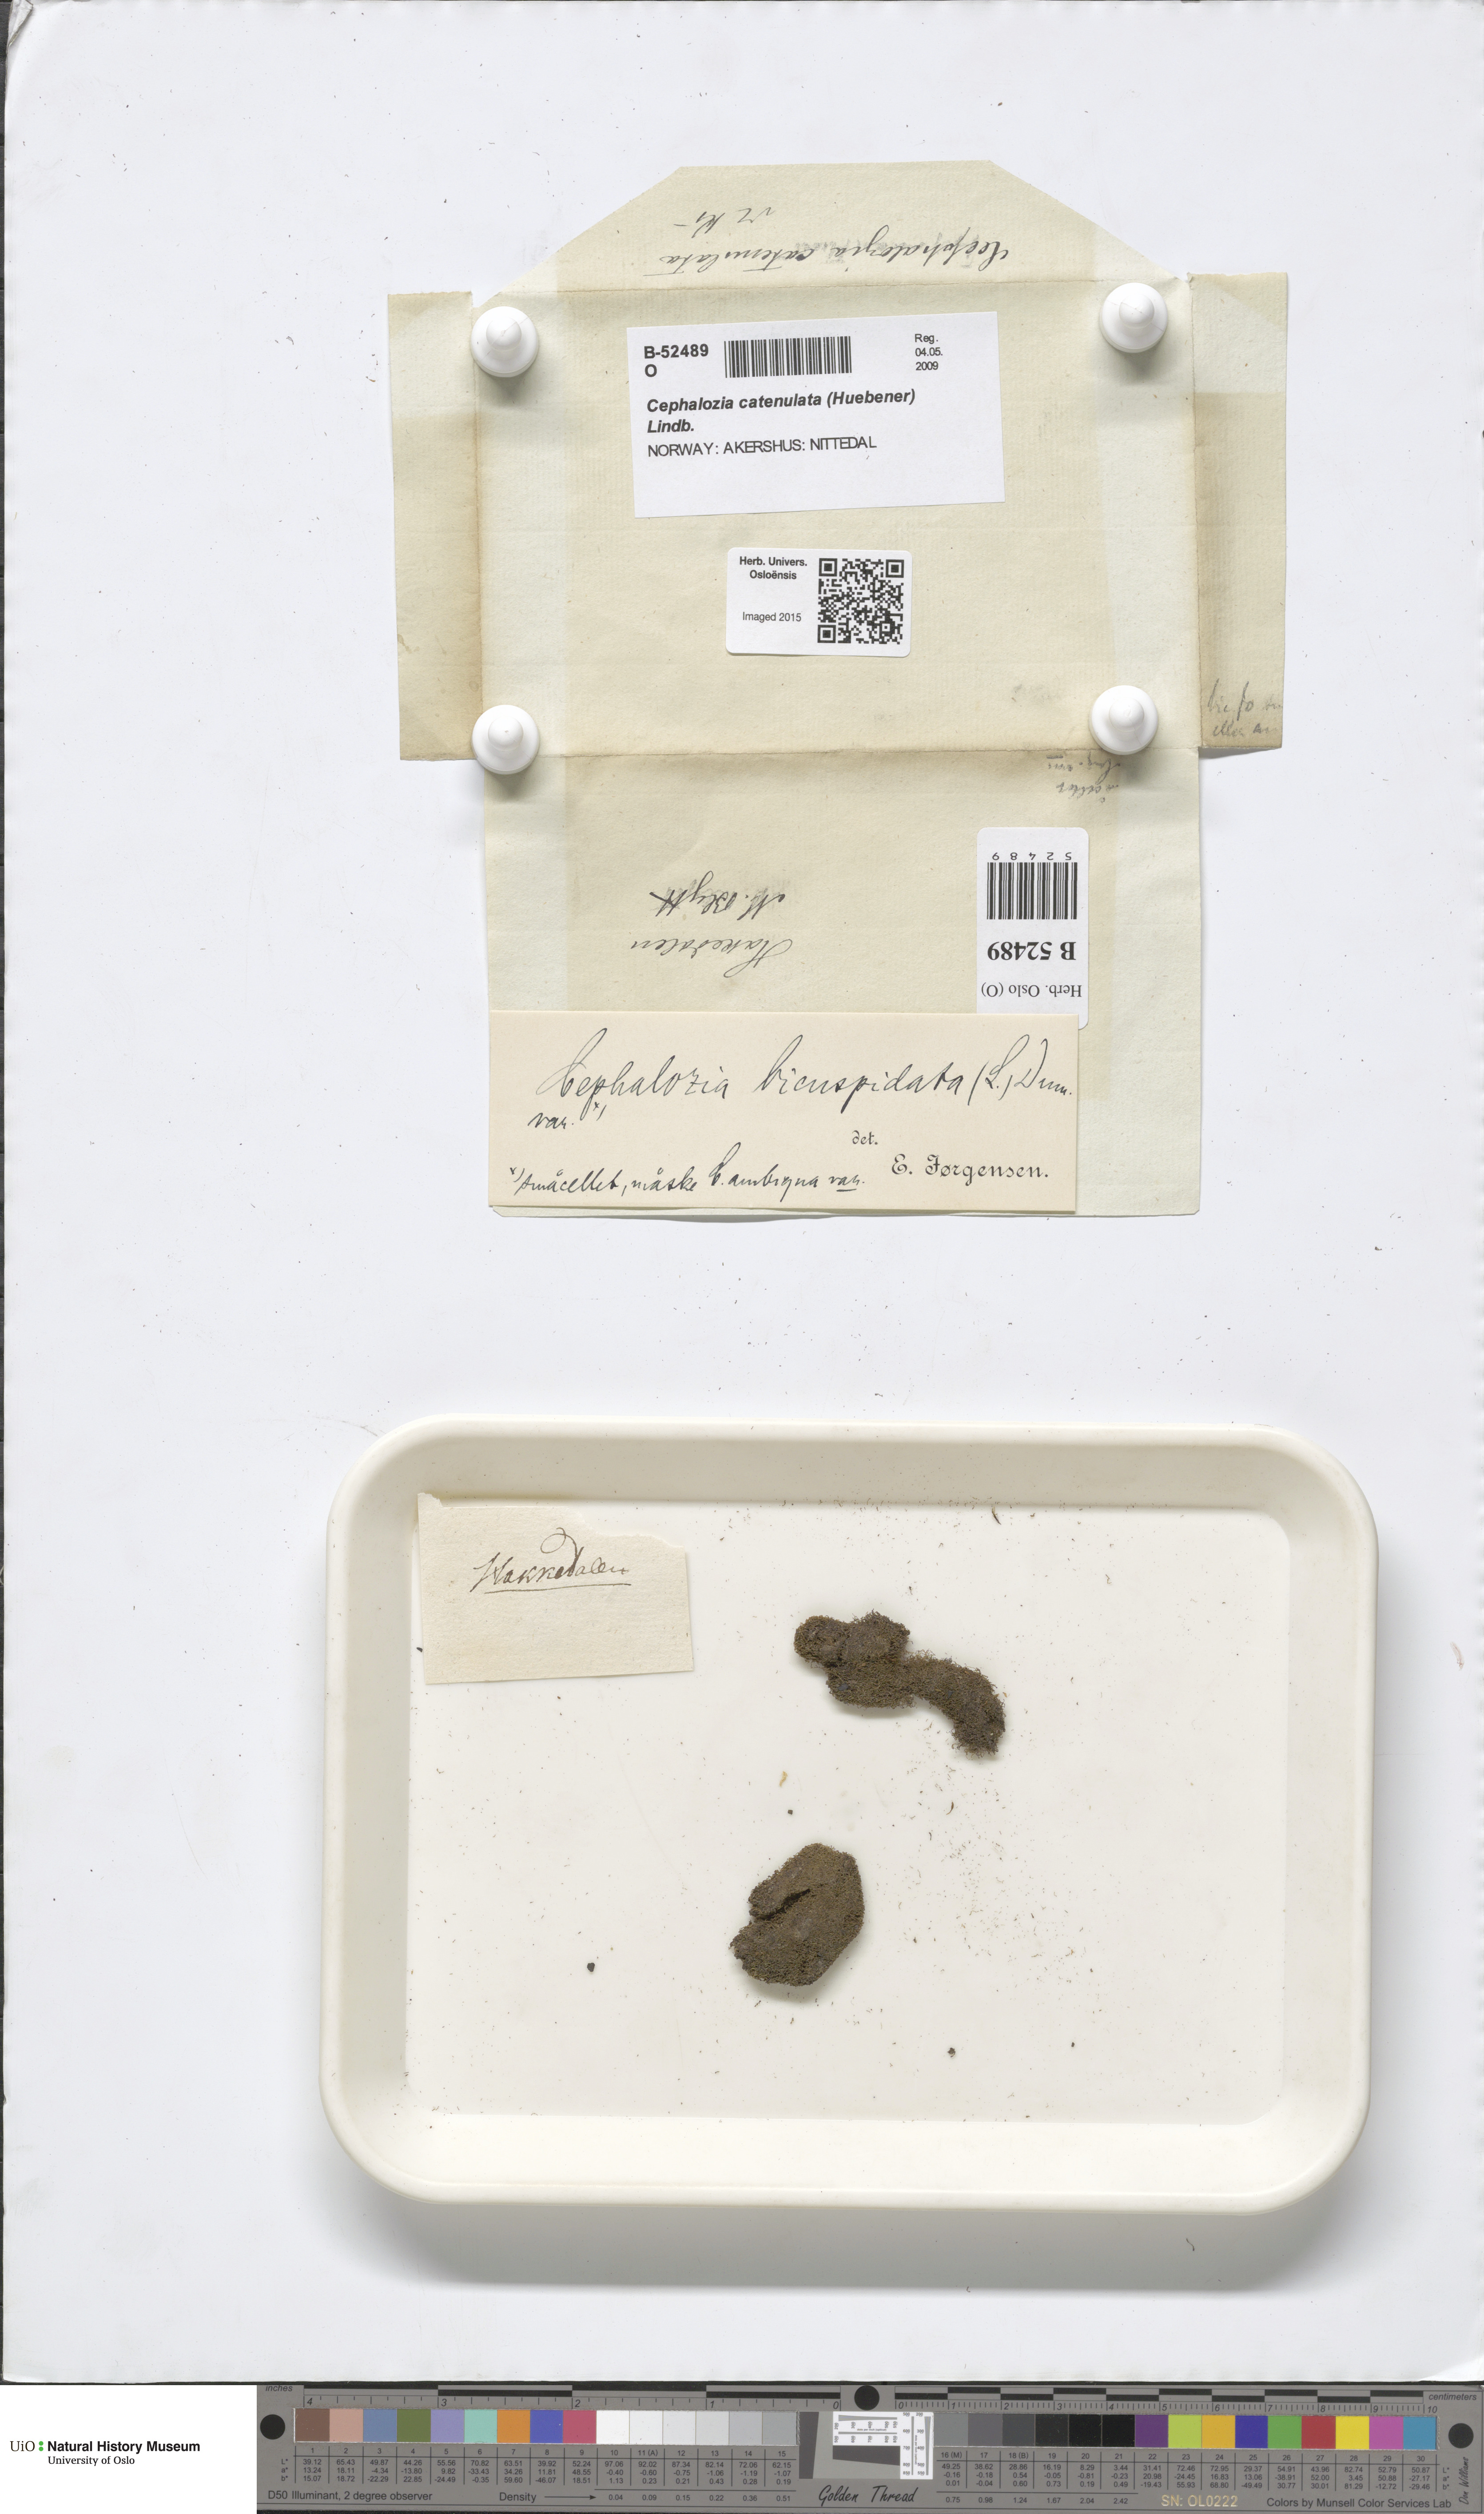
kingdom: Plantae
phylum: Marchantiophyta
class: Jungermanniopsida
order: Jungermanniales
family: Cephaloziaceae
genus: Cephalozia
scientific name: Cephalozia bicuspidata
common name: Two-horned pincerwort
